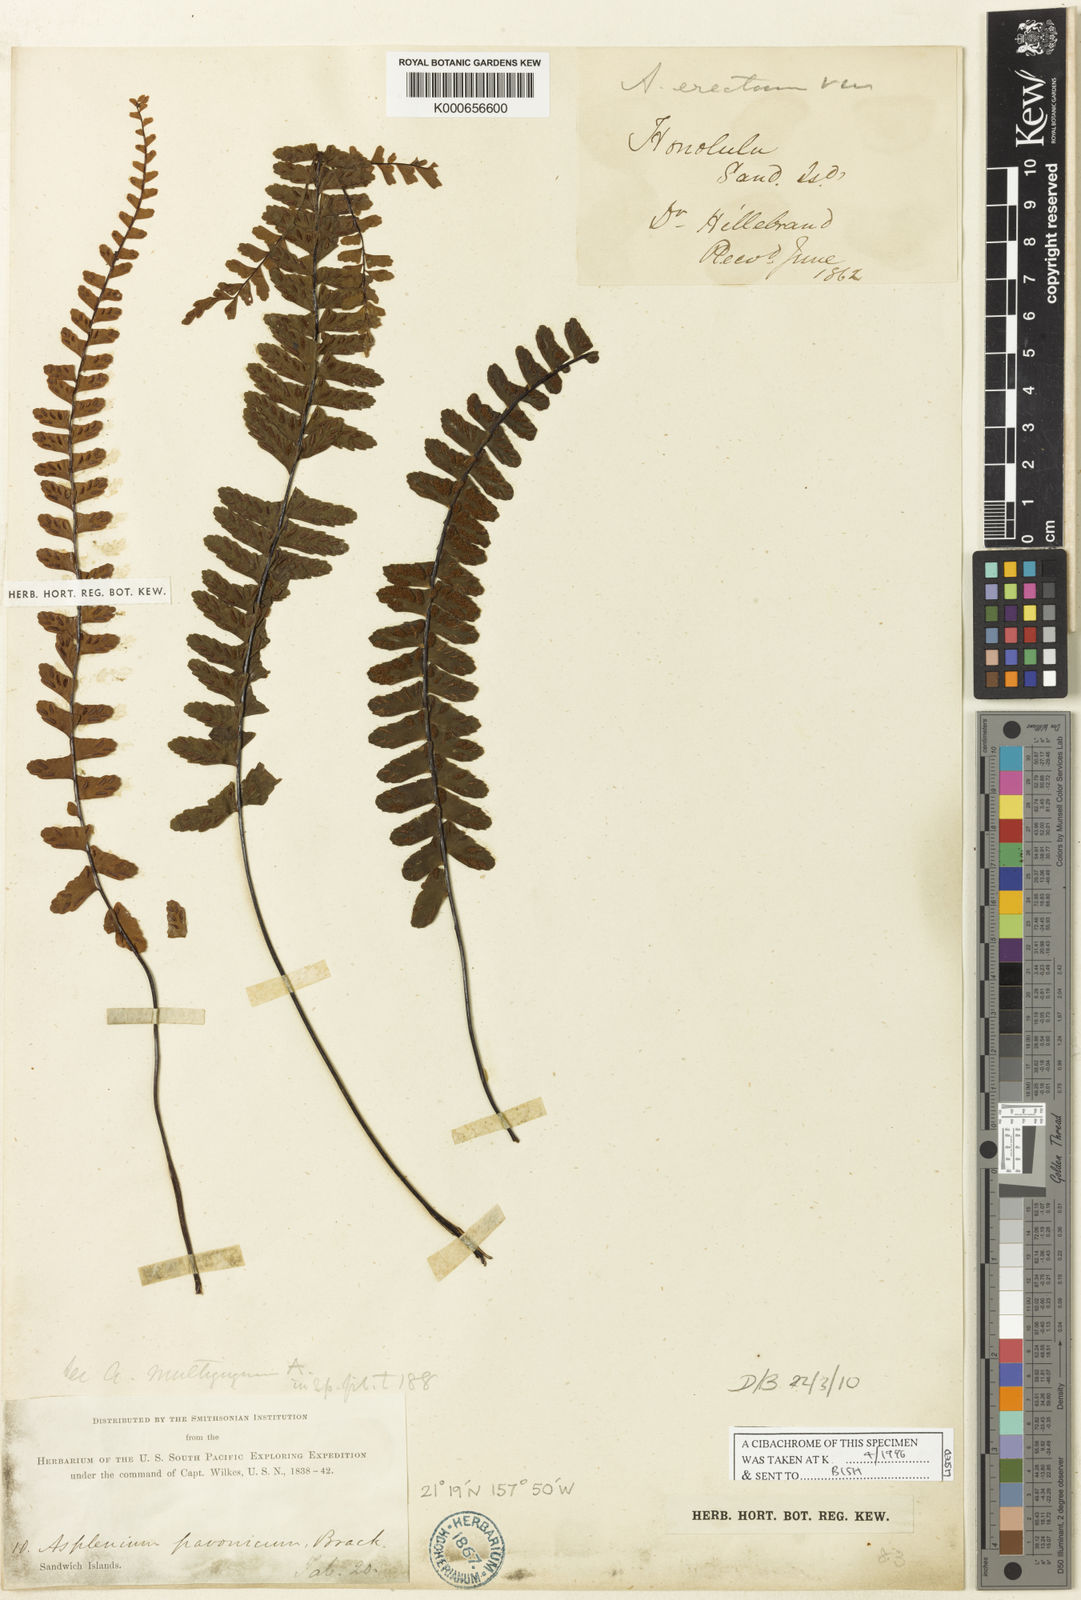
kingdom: Plantae
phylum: Tracheophyta
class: Polypodiopsida
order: Polypodiales
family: Aspleniaceae
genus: Asplenium
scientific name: Asplenium normale
